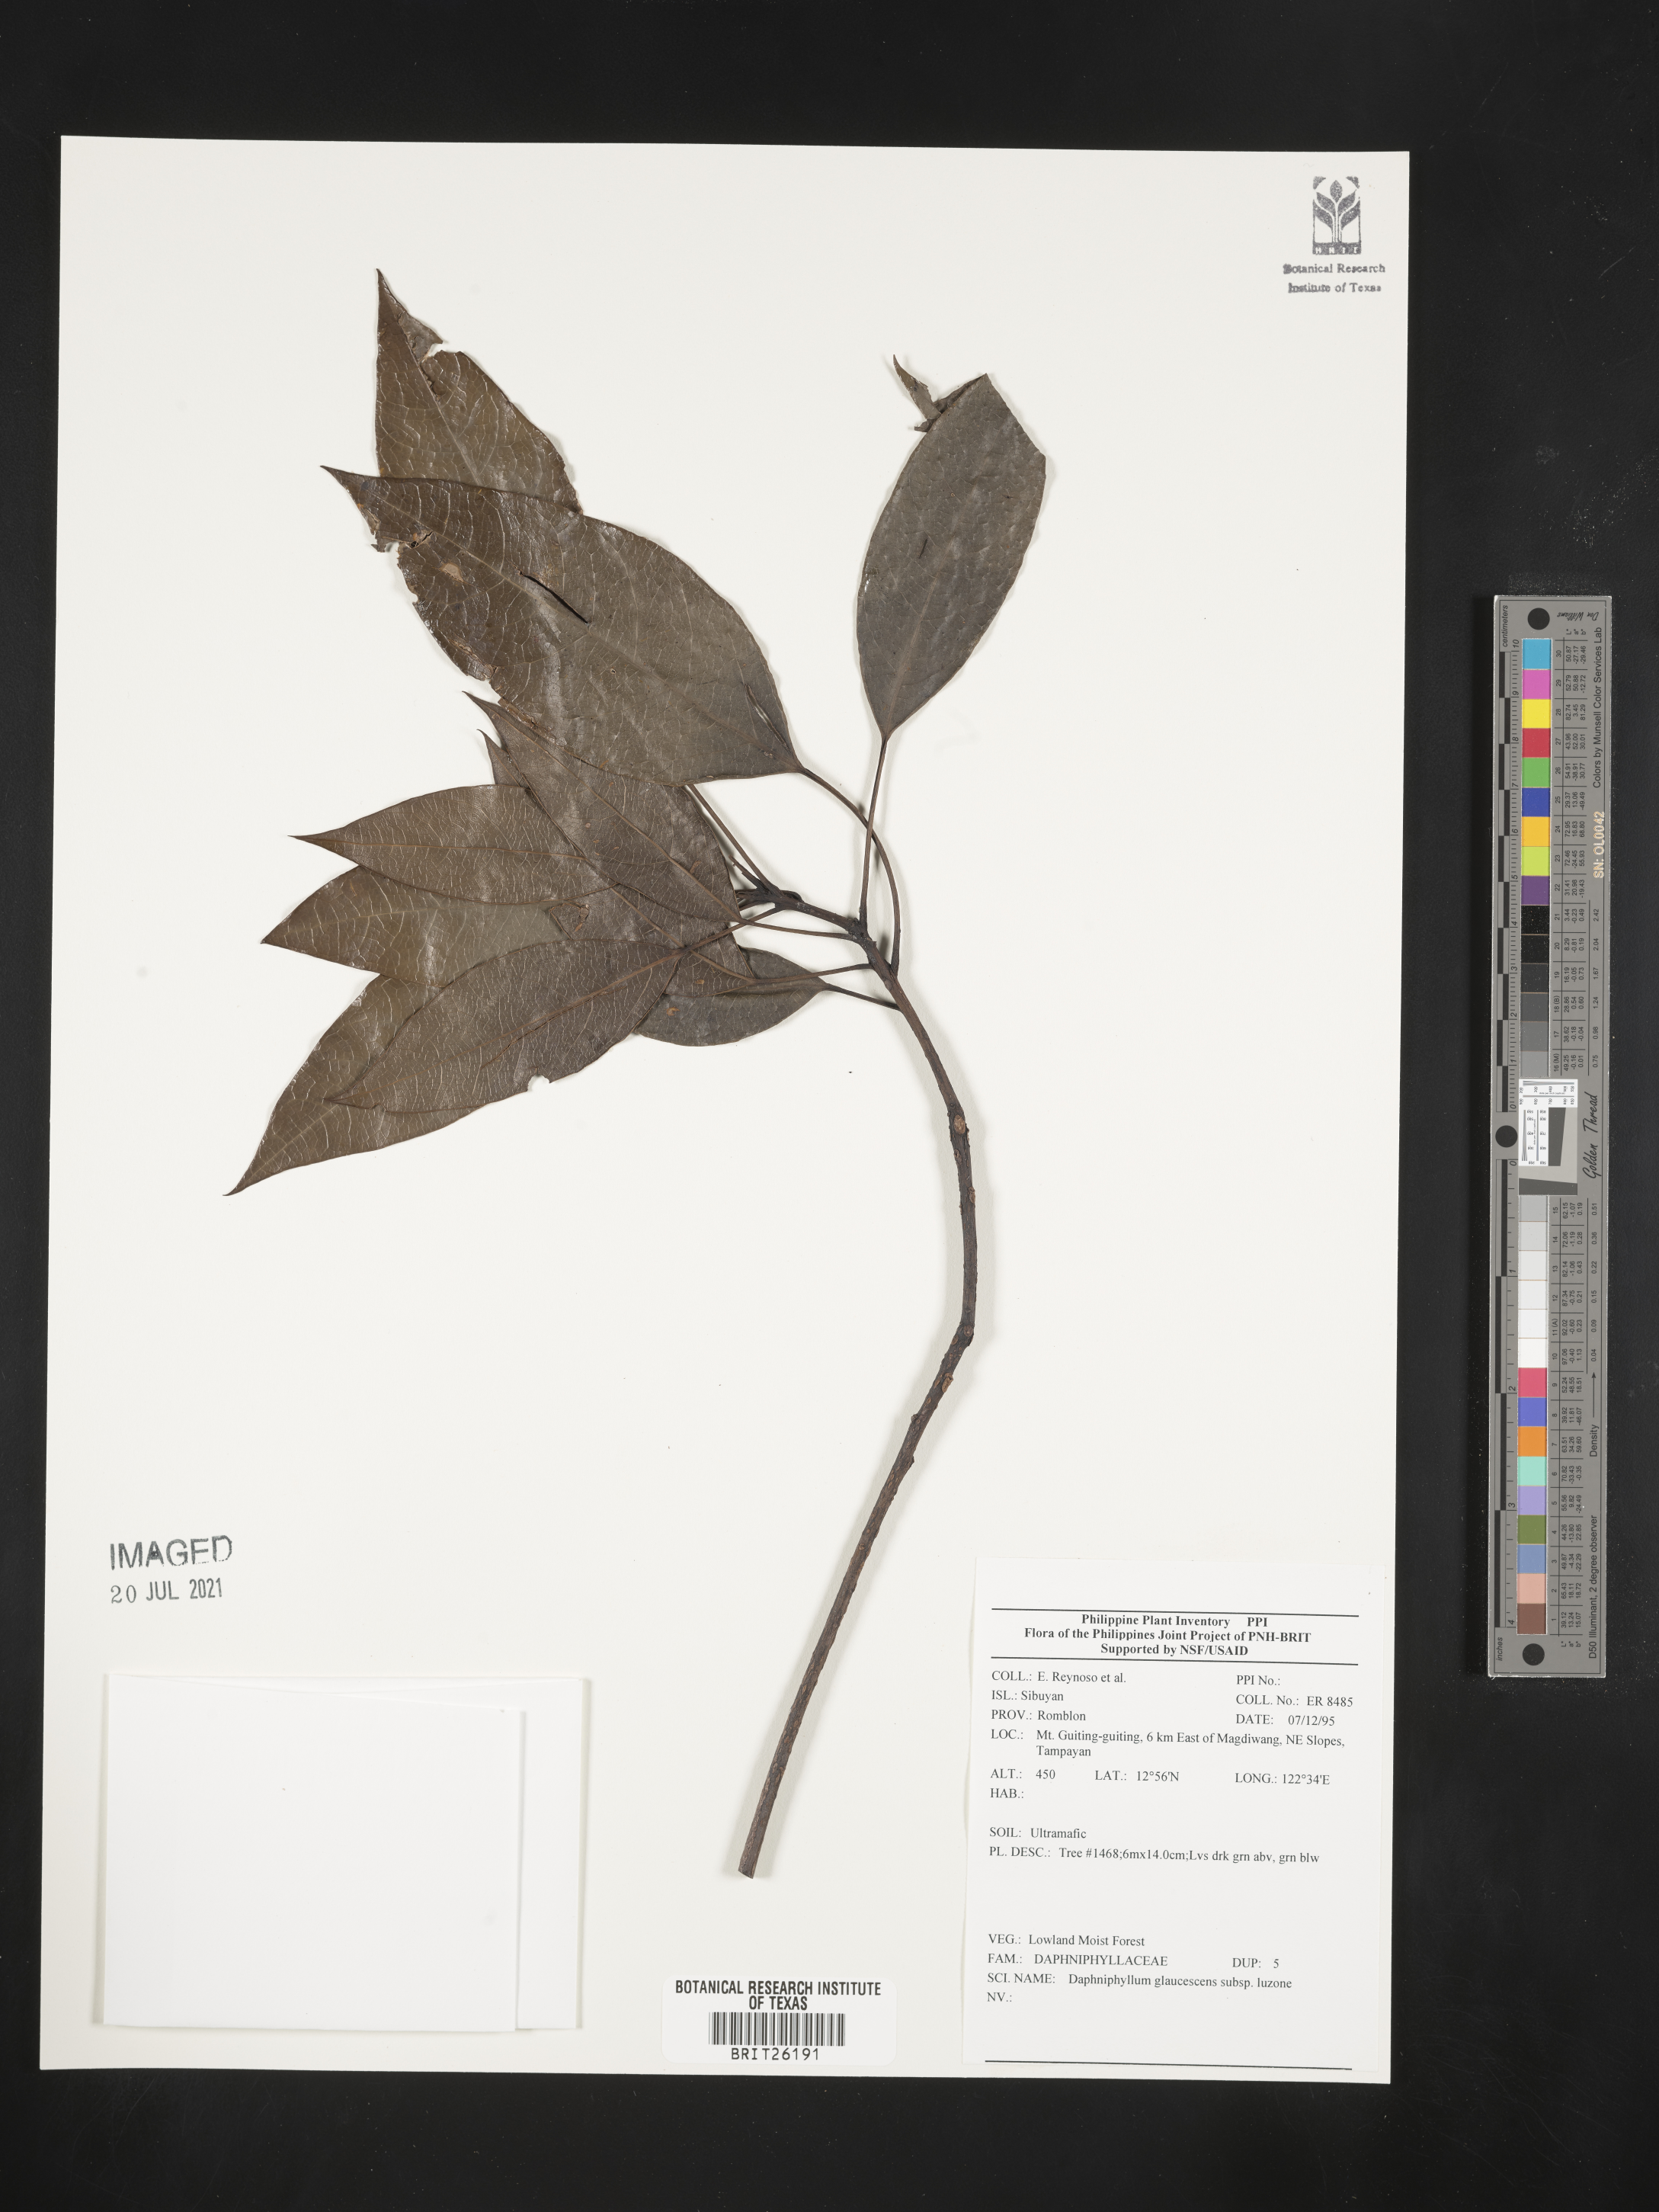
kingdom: Plantae
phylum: Tracheophyta
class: Magnoliopsida
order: Saxifragales
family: Daphniphyllaceae
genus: Daphniphyllum
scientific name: Daphniphyllum glaucescens
